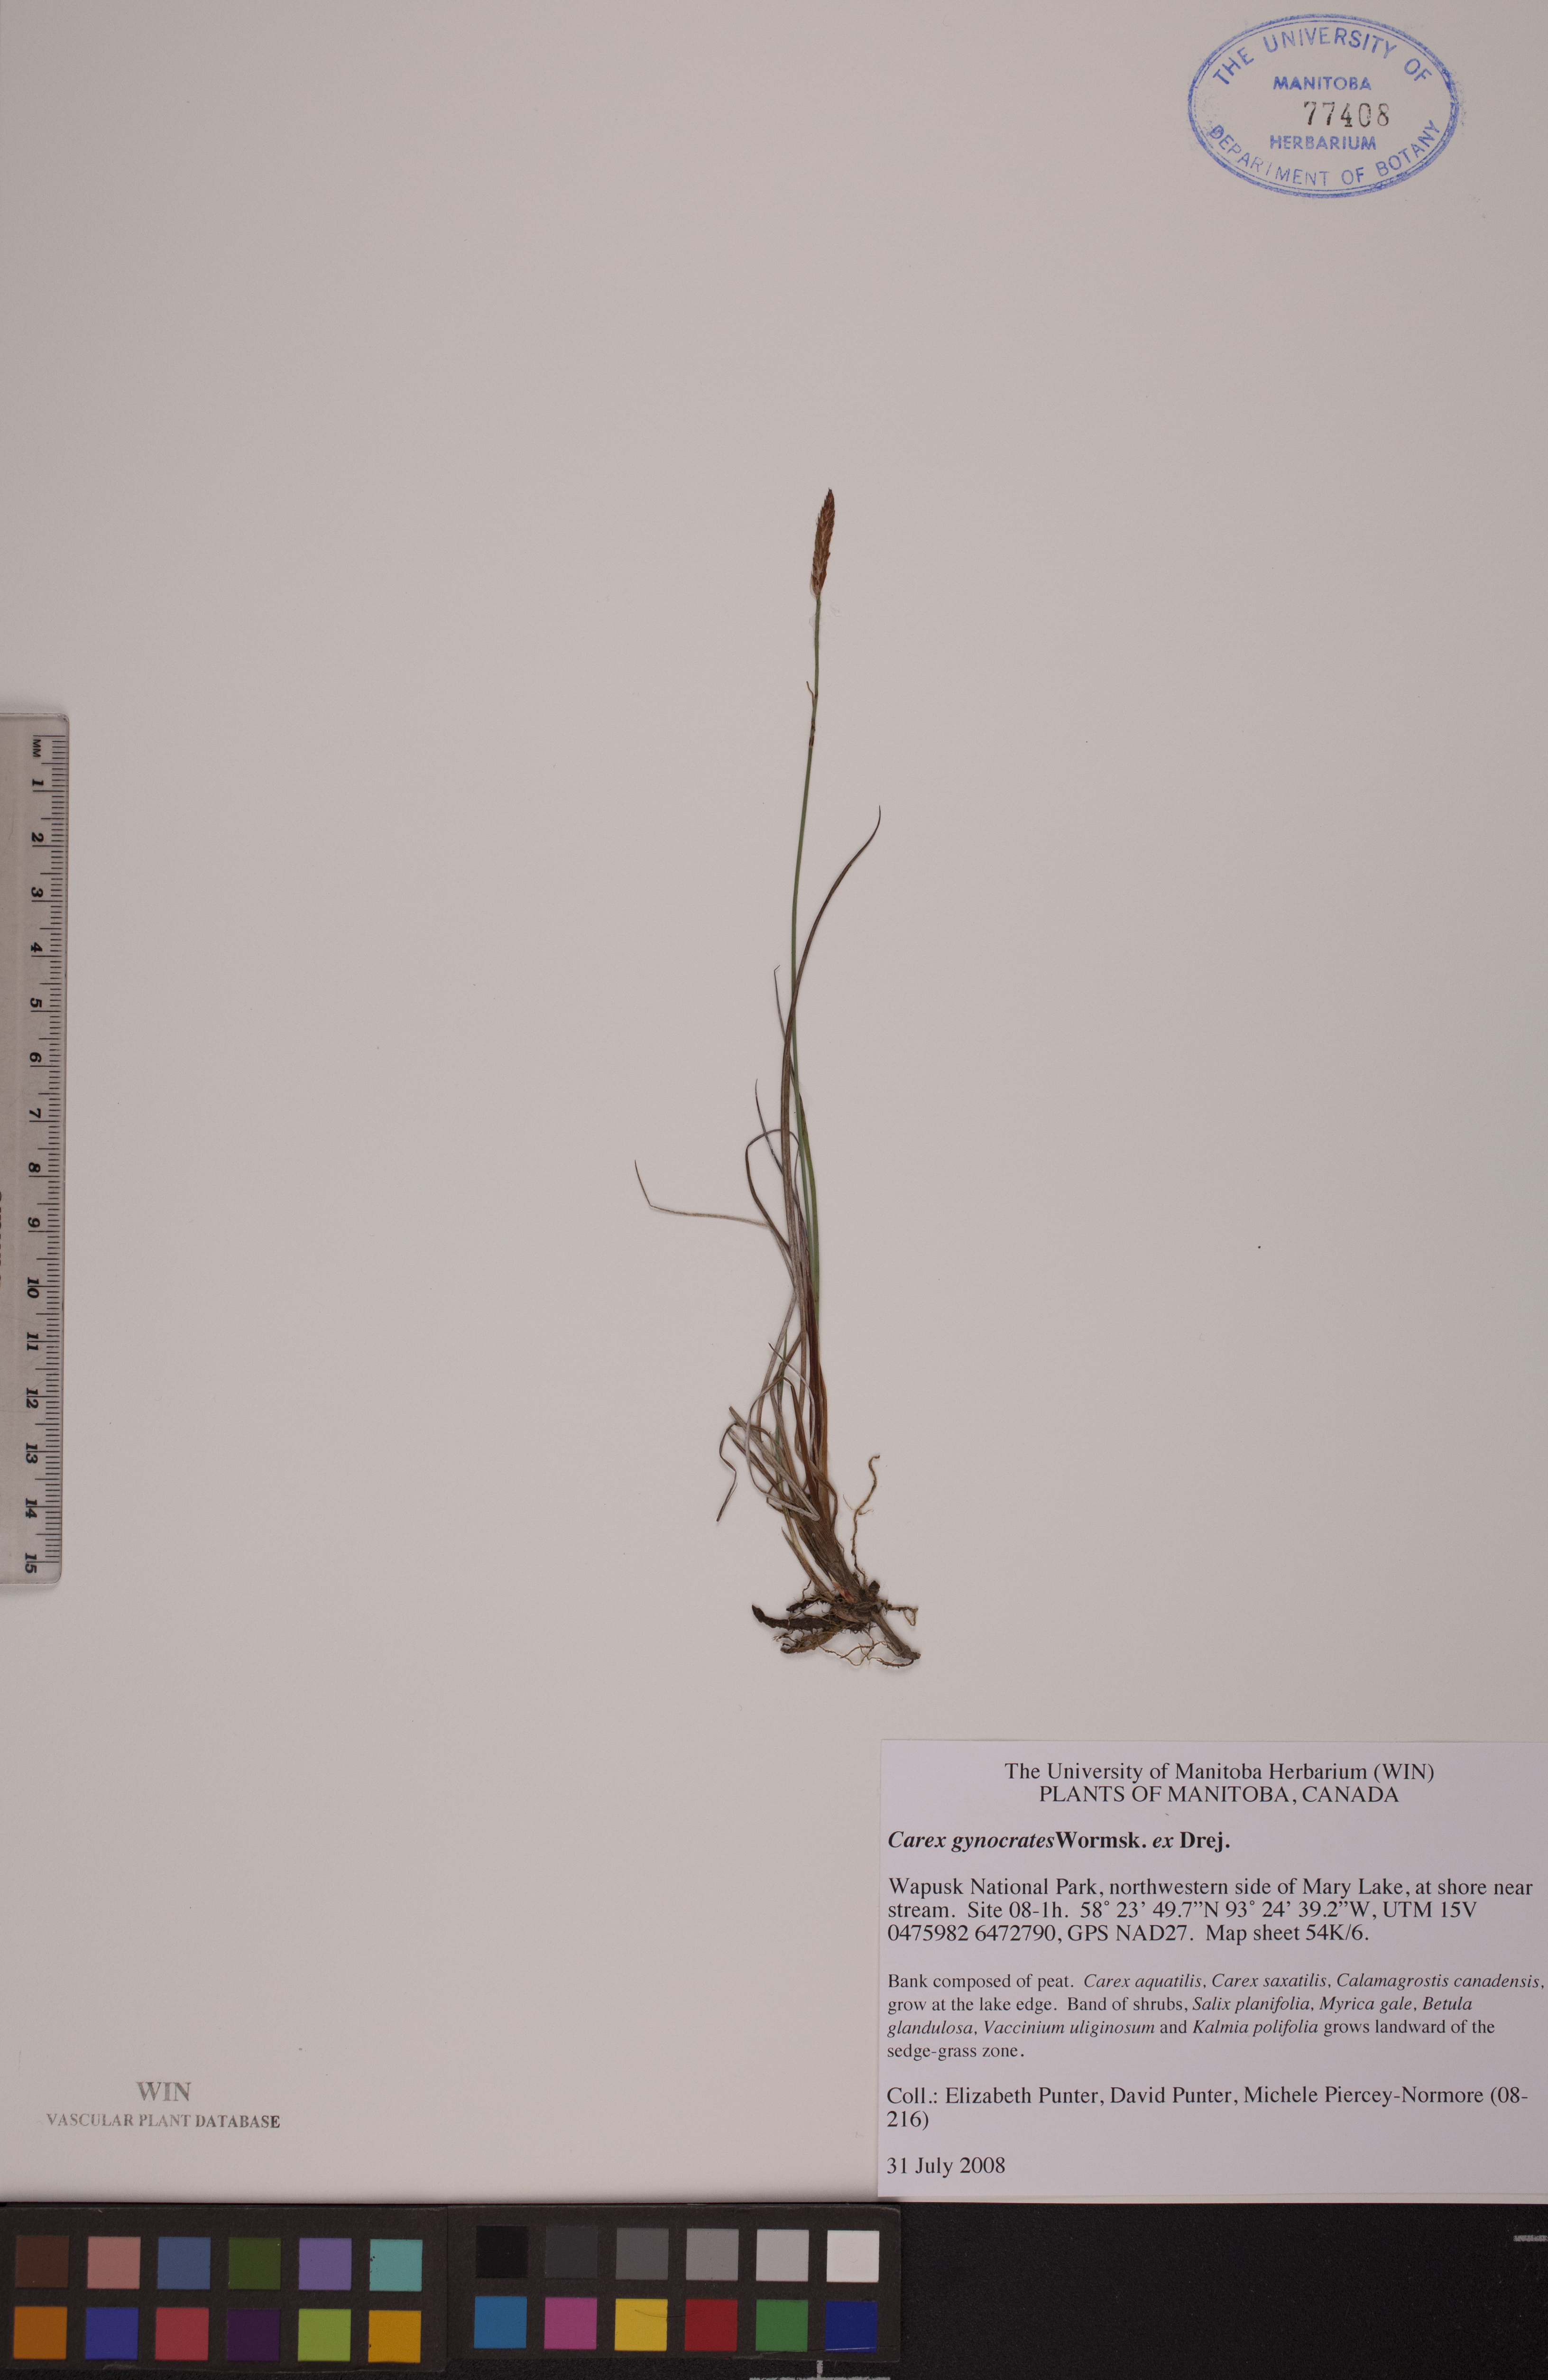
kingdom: Plantae
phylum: Tracheophyta
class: Liliopsida
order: Poales
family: Cyperaceae
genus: Carex
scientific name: Carex nardina
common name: Nard sedge
